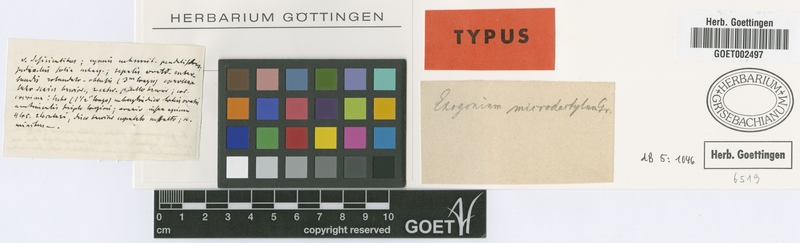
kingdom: Plantae
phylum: Tracheophyta
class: Magnoliopsida
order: Solanales
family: Convolvulaceae
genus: Ipomoea
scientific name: Ipomoea microdactyla
